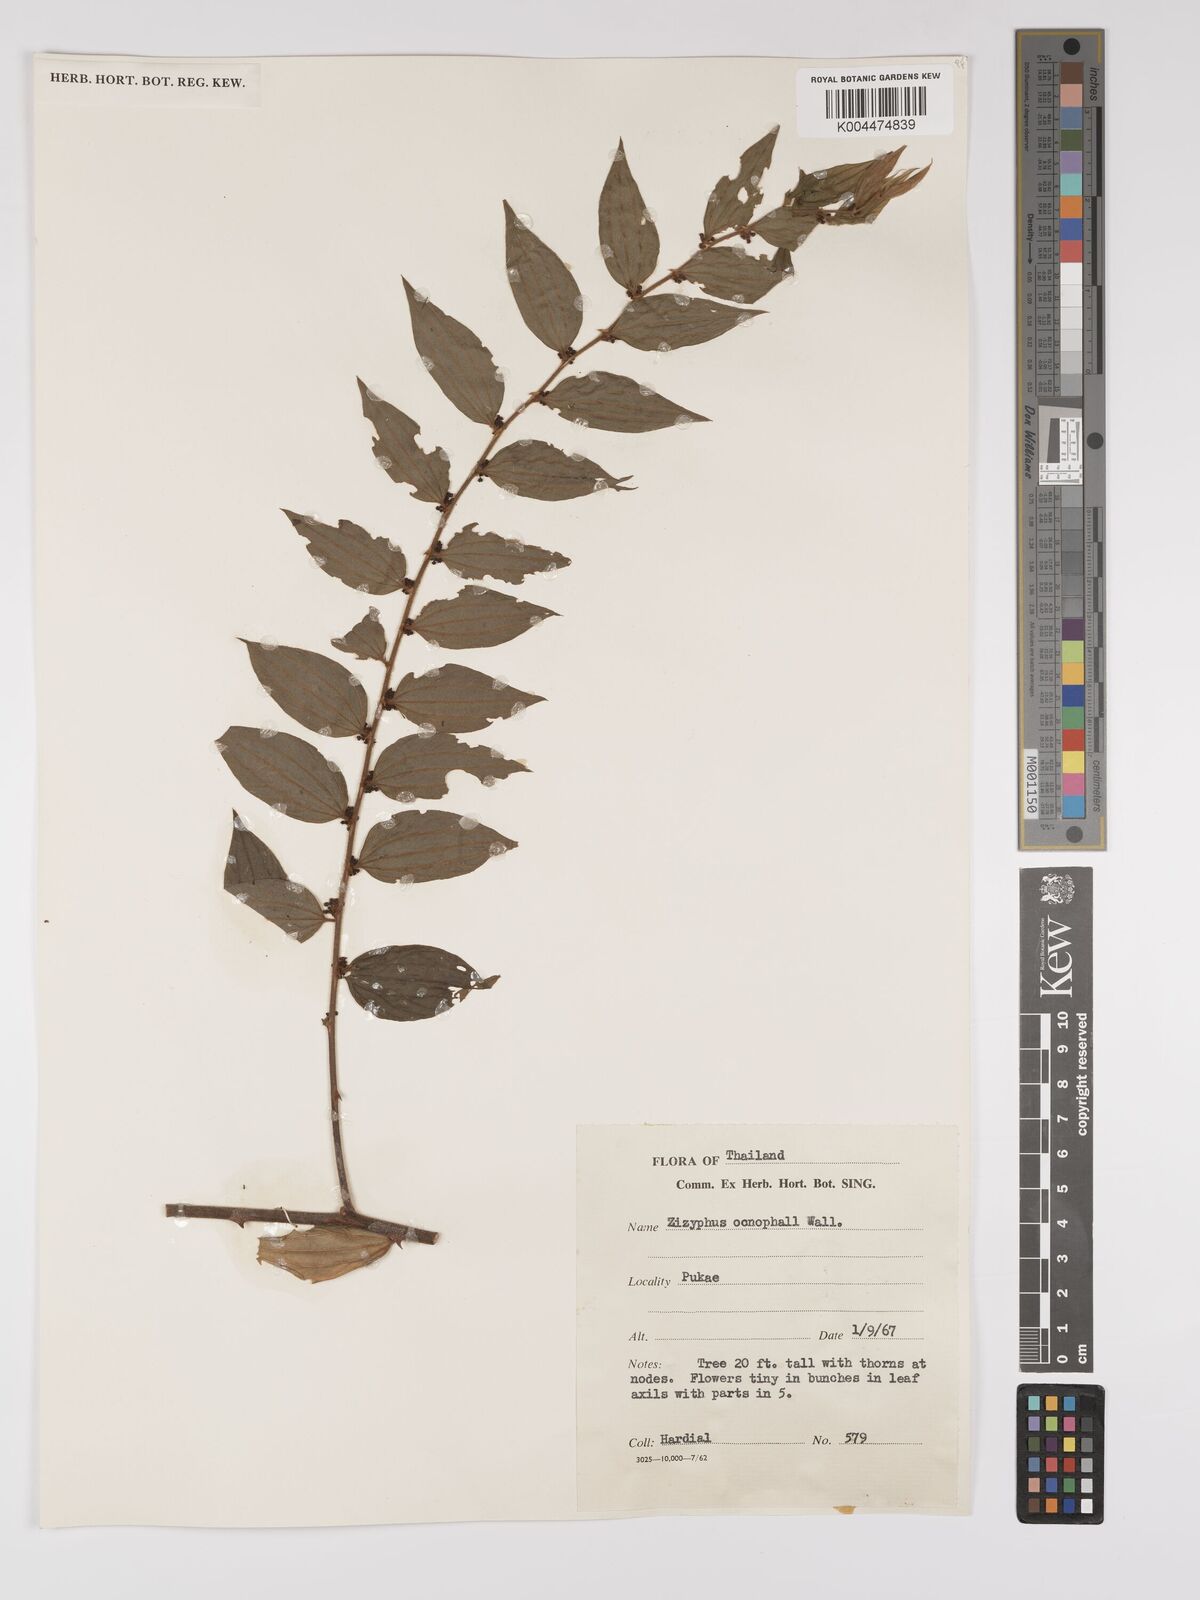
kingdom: Plantae
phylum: Tracheophyta
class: Magnoliopsida
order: Rosales
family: Rhamnaceae
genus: Ziziphus
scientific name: Ziziphus oenopolia
